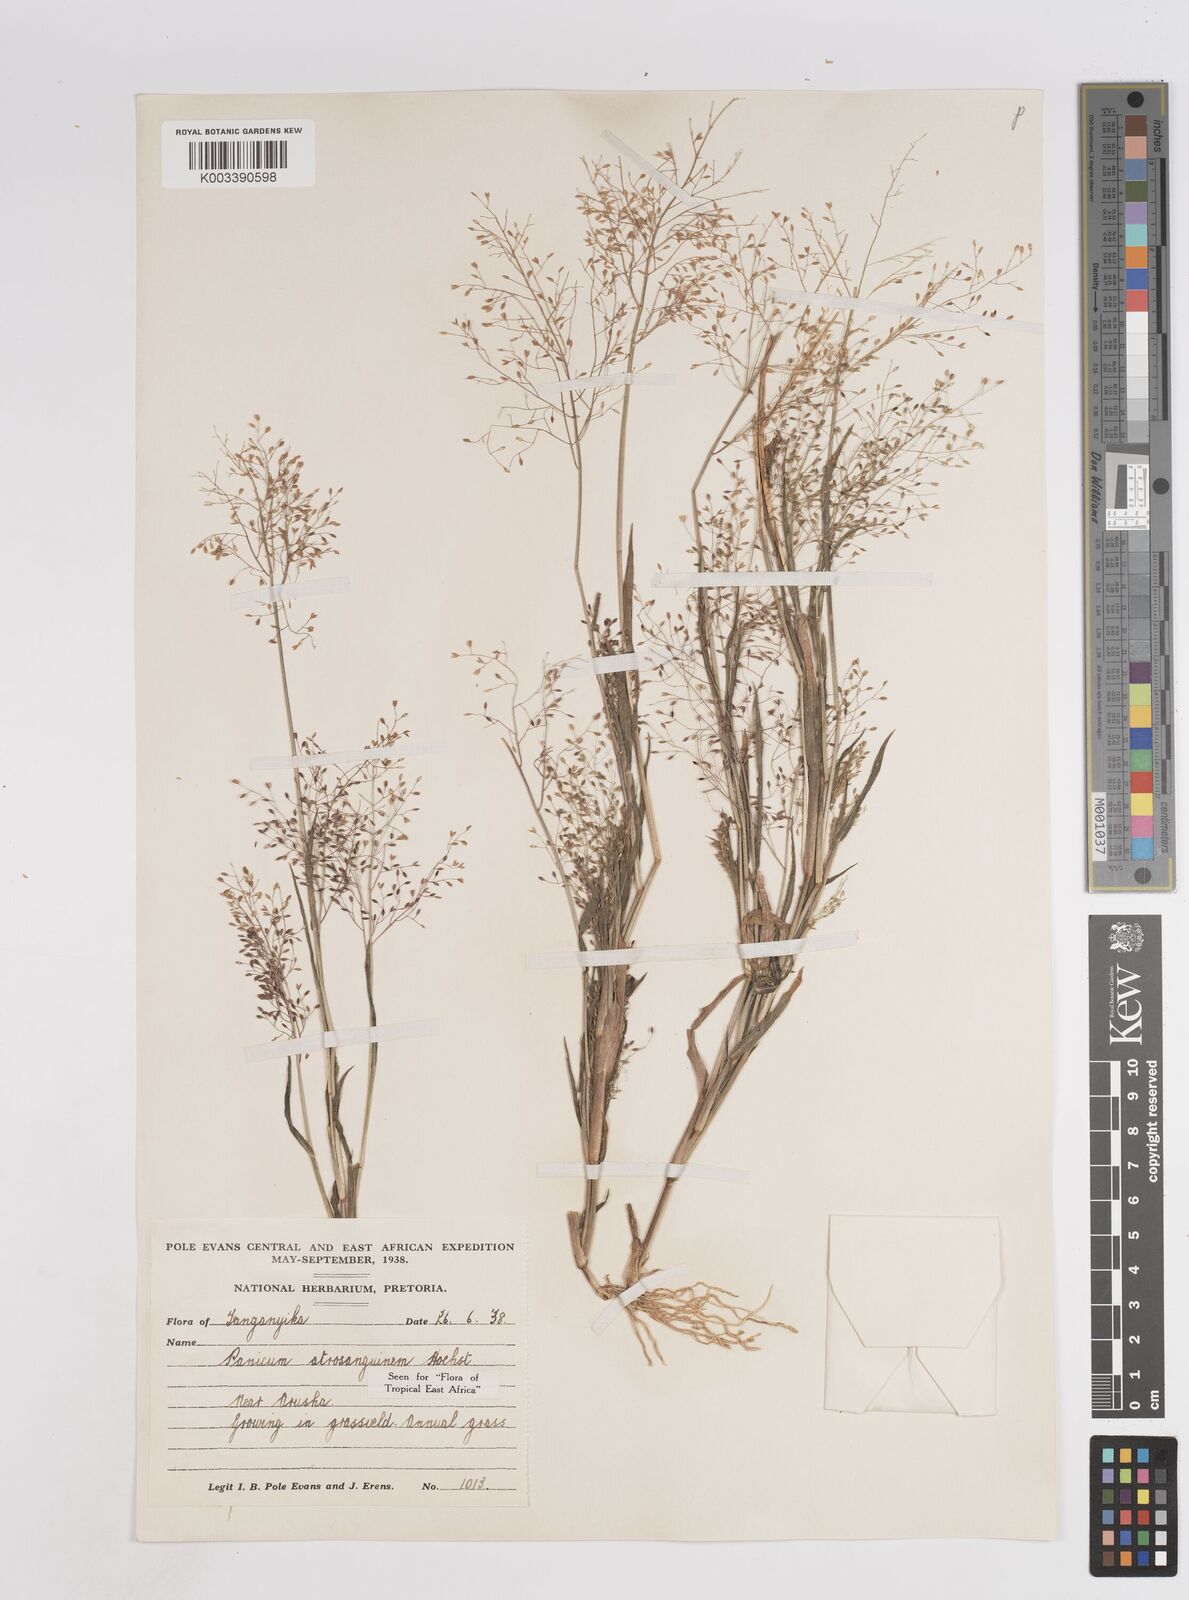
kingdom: Plantae
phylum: Tracheophyta
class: Liliopsida
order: Poales
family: Poaceae
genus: Panicum
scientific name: Panicum atrosanguineum
